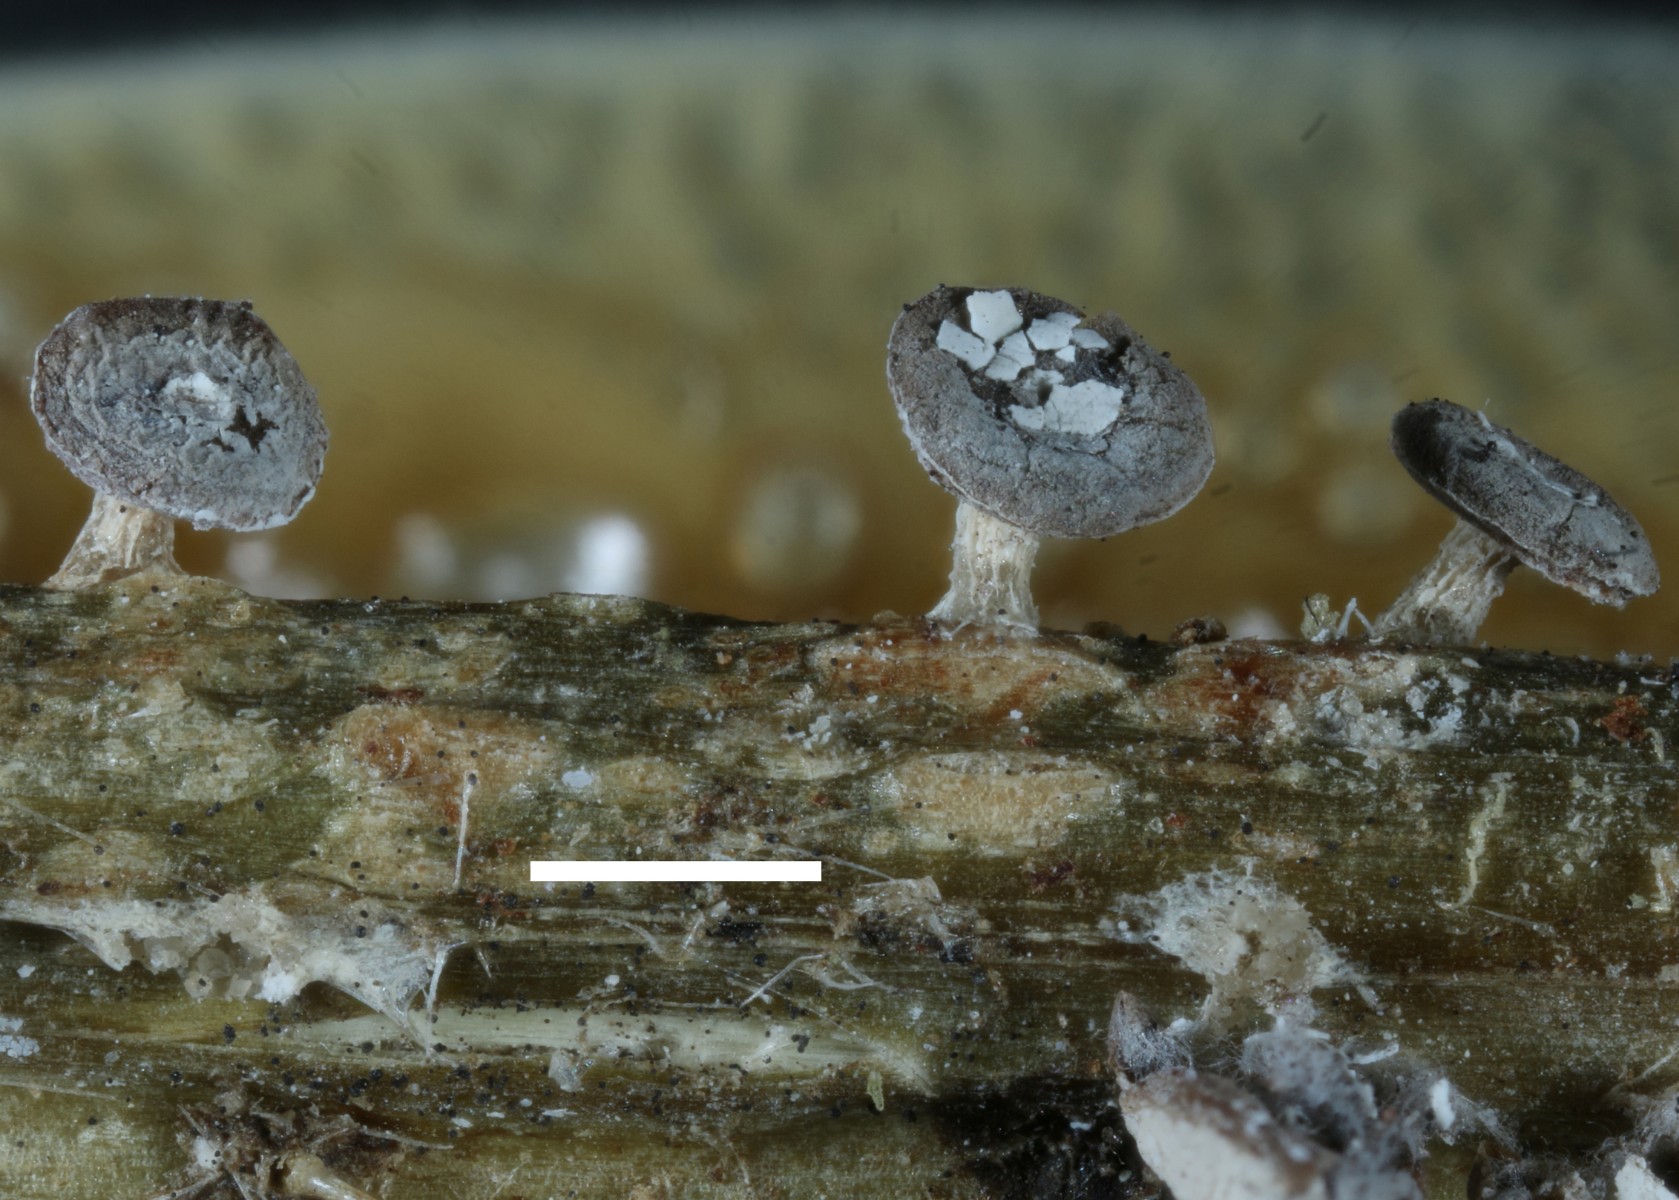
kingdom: Protozoa
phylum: Mycetozoa
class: Myxomycetes
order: Physarales
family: Didymiaceae
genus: Diderma
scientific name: Diderma hemisphaericum
